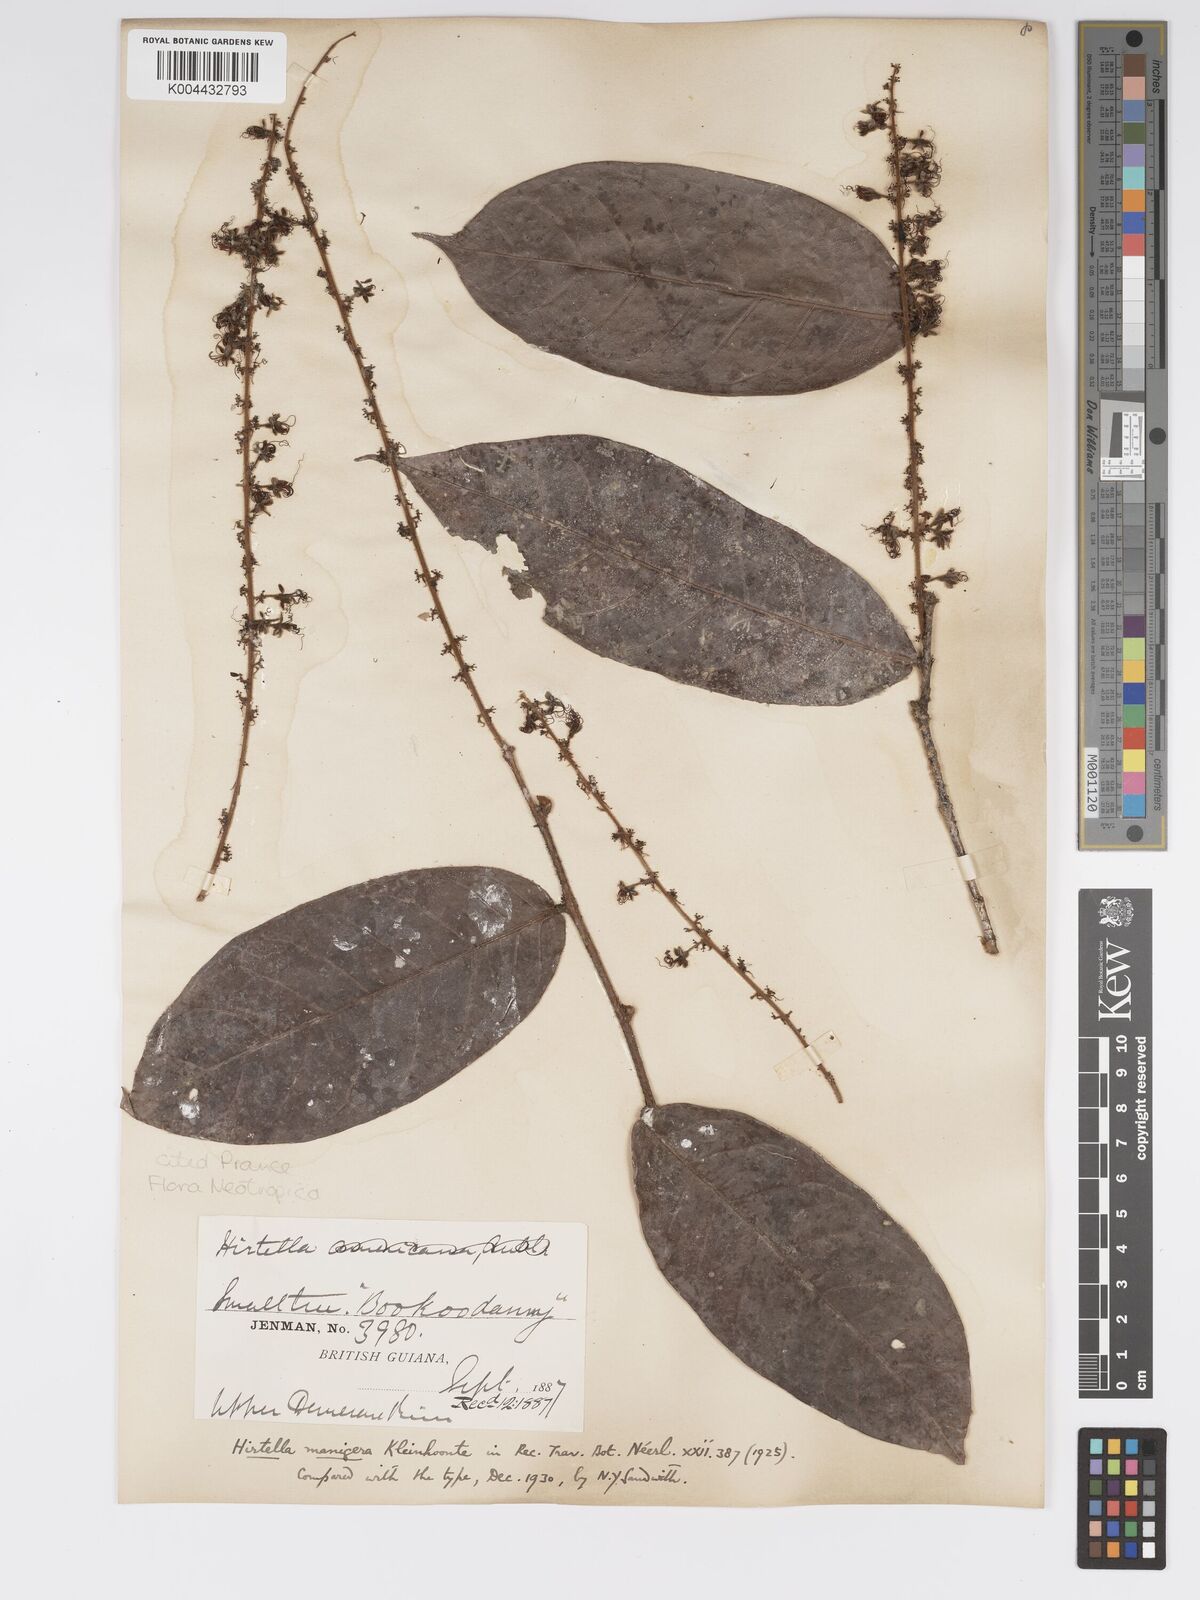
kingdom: Plantae
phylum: Tracheophyta
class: Magnoliopsida
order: Malpighiales
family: Chrysobalanaceae
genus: Hirtella
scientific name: Hirtella silicea
